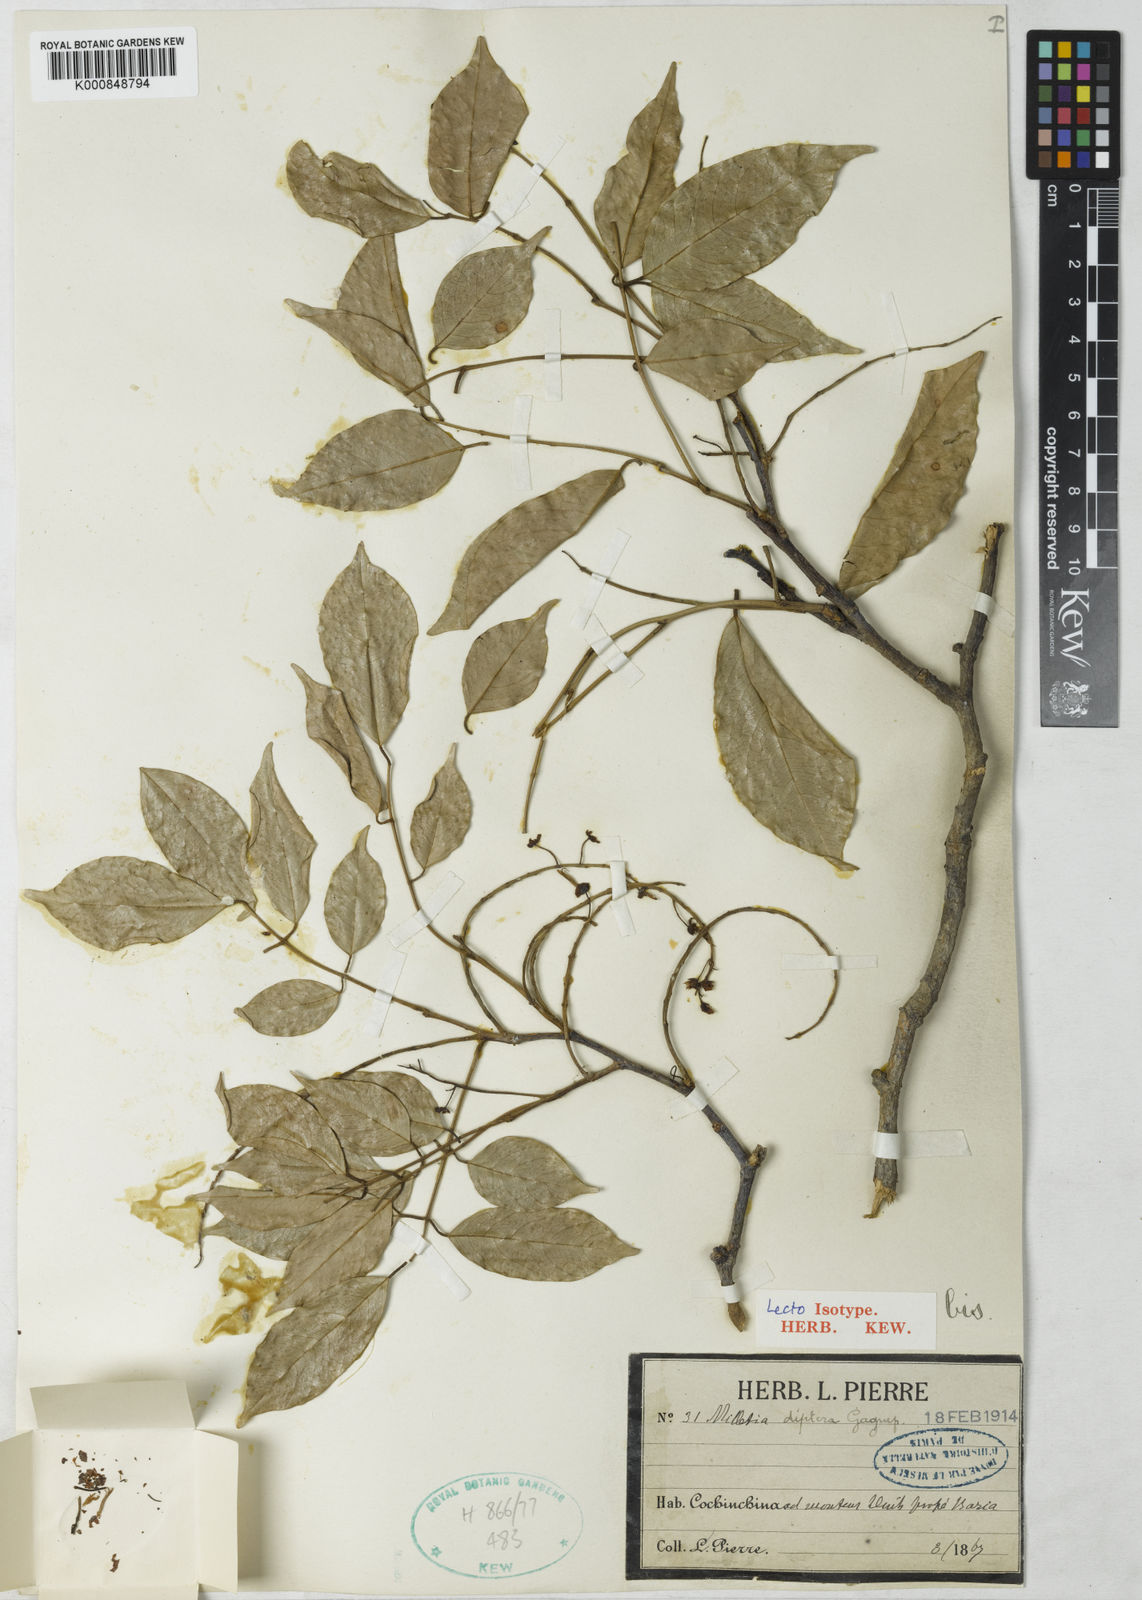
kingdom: Plantae
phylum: Tracheophyta
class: Magnoliopsida
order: Fabales
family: Fabaceae
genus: Millettia
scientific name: Millettia diptera
